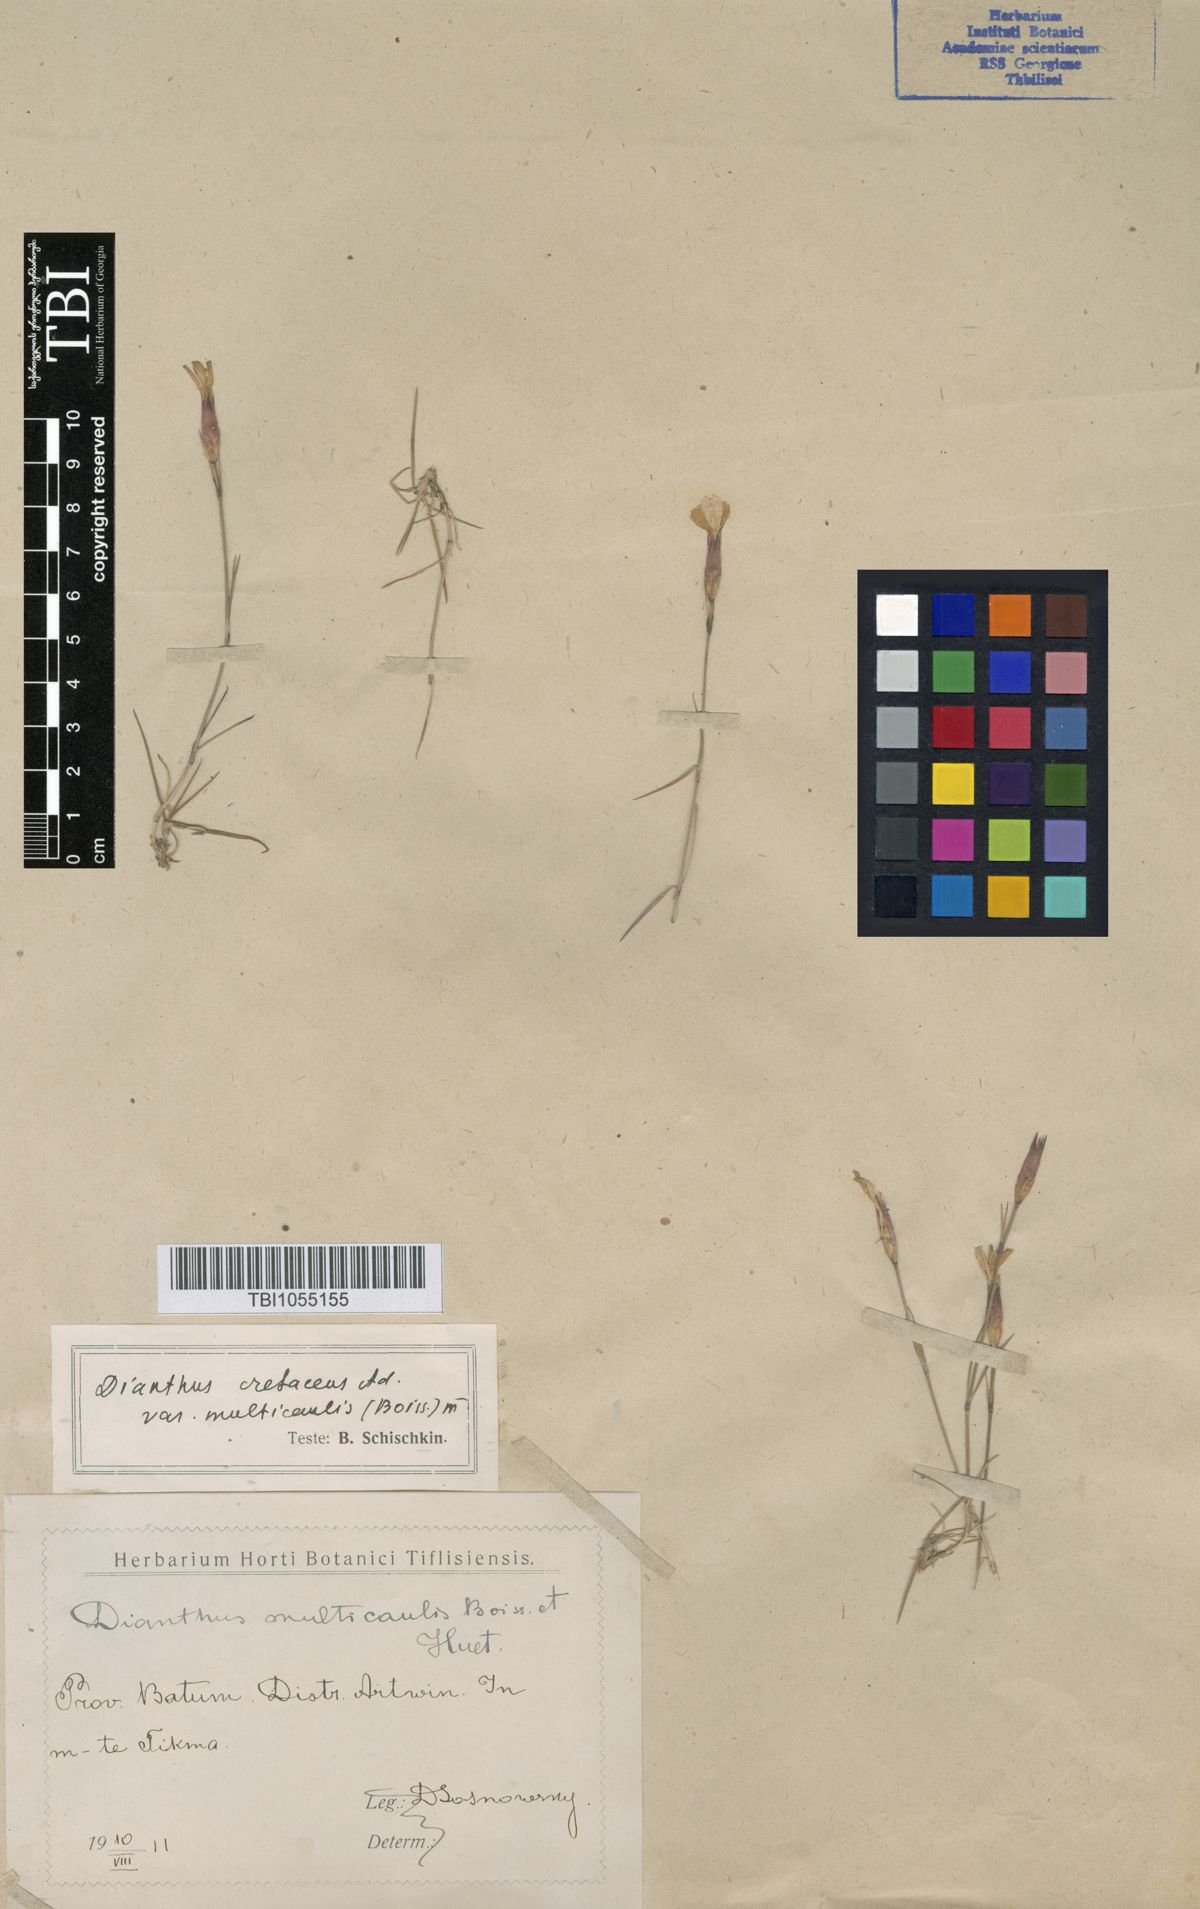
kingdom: Plantae
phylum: Tracheophyta
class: Magnoliopsida
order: Caryophyllales
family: Caryophyllaceae
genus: Dianthus
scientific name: Dianthus cretaceus
